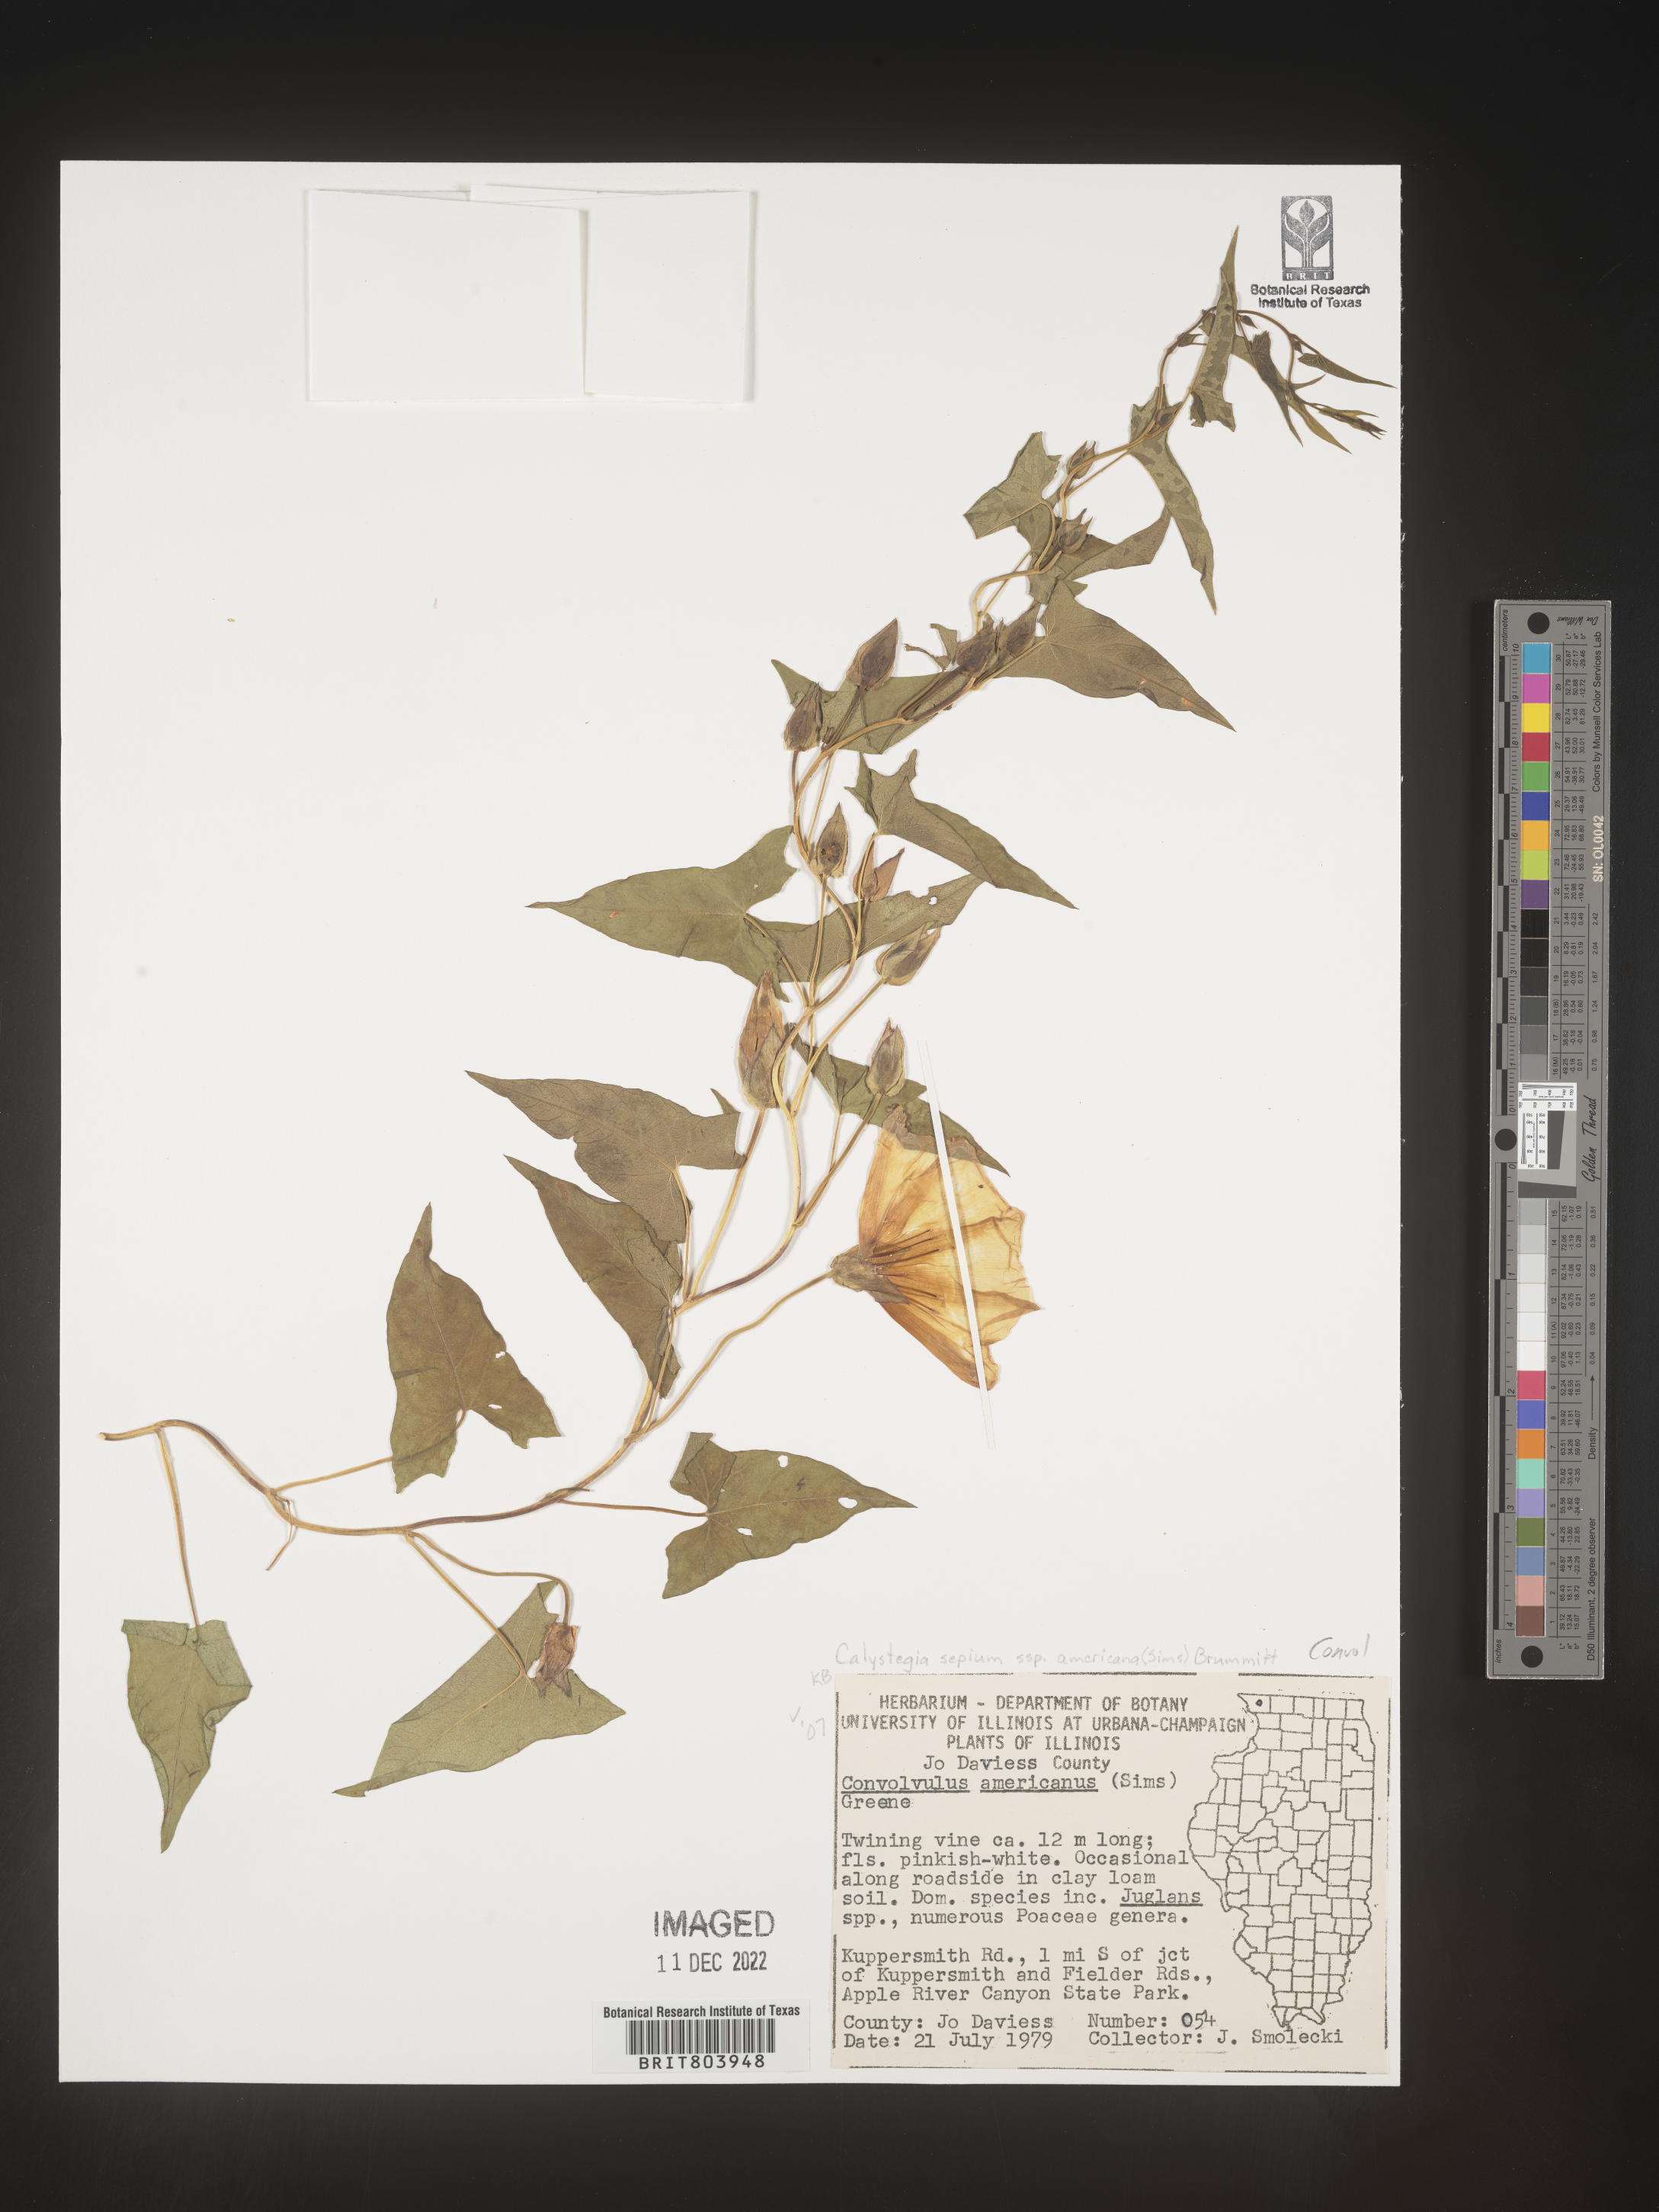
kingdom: Plantae
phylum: Tracheophyta
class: Magnoliopsida
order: Solanales
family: Convolvulaceae
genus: Calystegia
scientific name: Calystegia sepium
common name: Hedge bindweed
